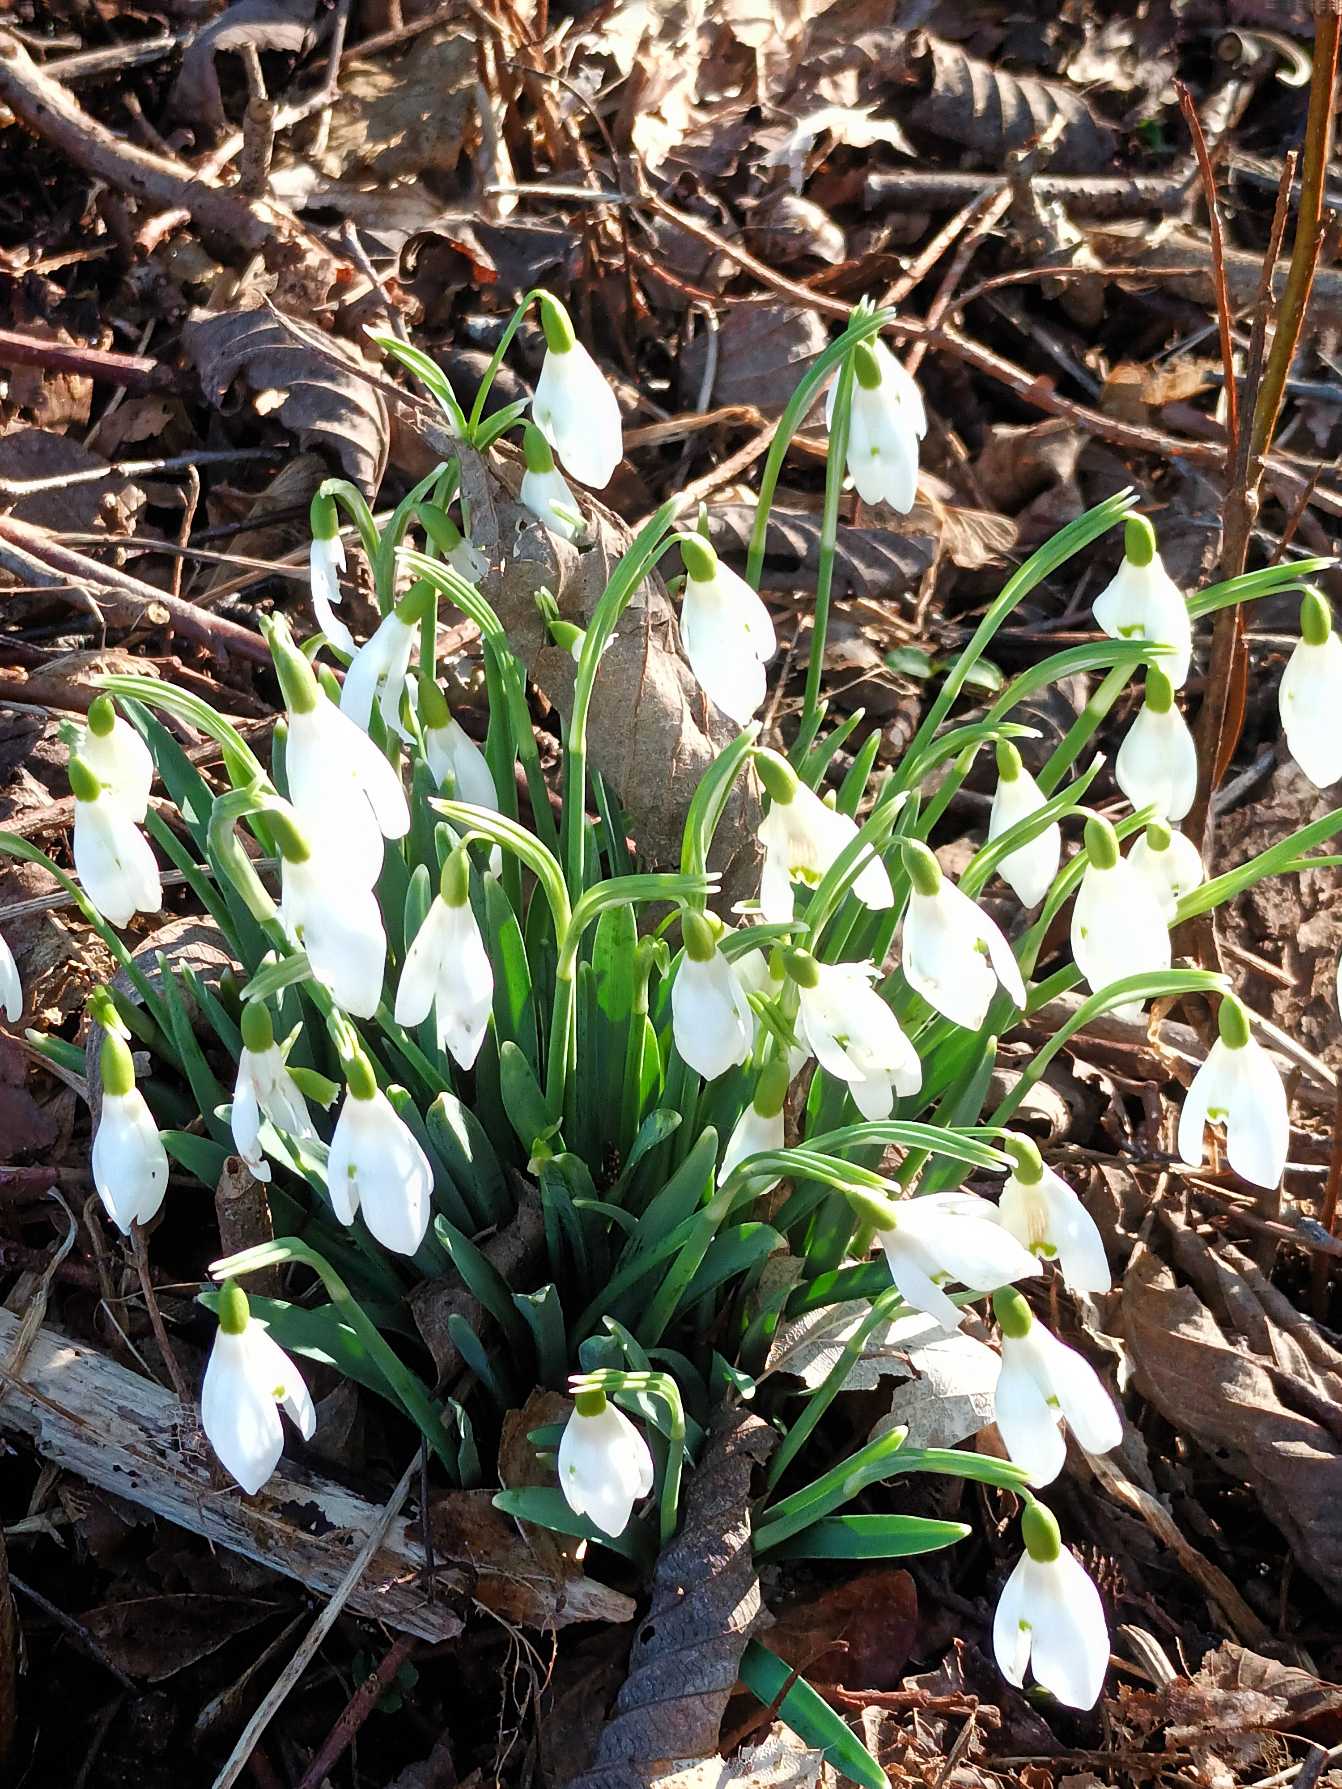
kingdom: Plantae
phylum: Tracheophyta
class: Liliopsida
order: Asparagales
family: Amaryllidaceae
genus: Galanthus
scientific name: Galanthus nivalis
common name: Vintergæk
